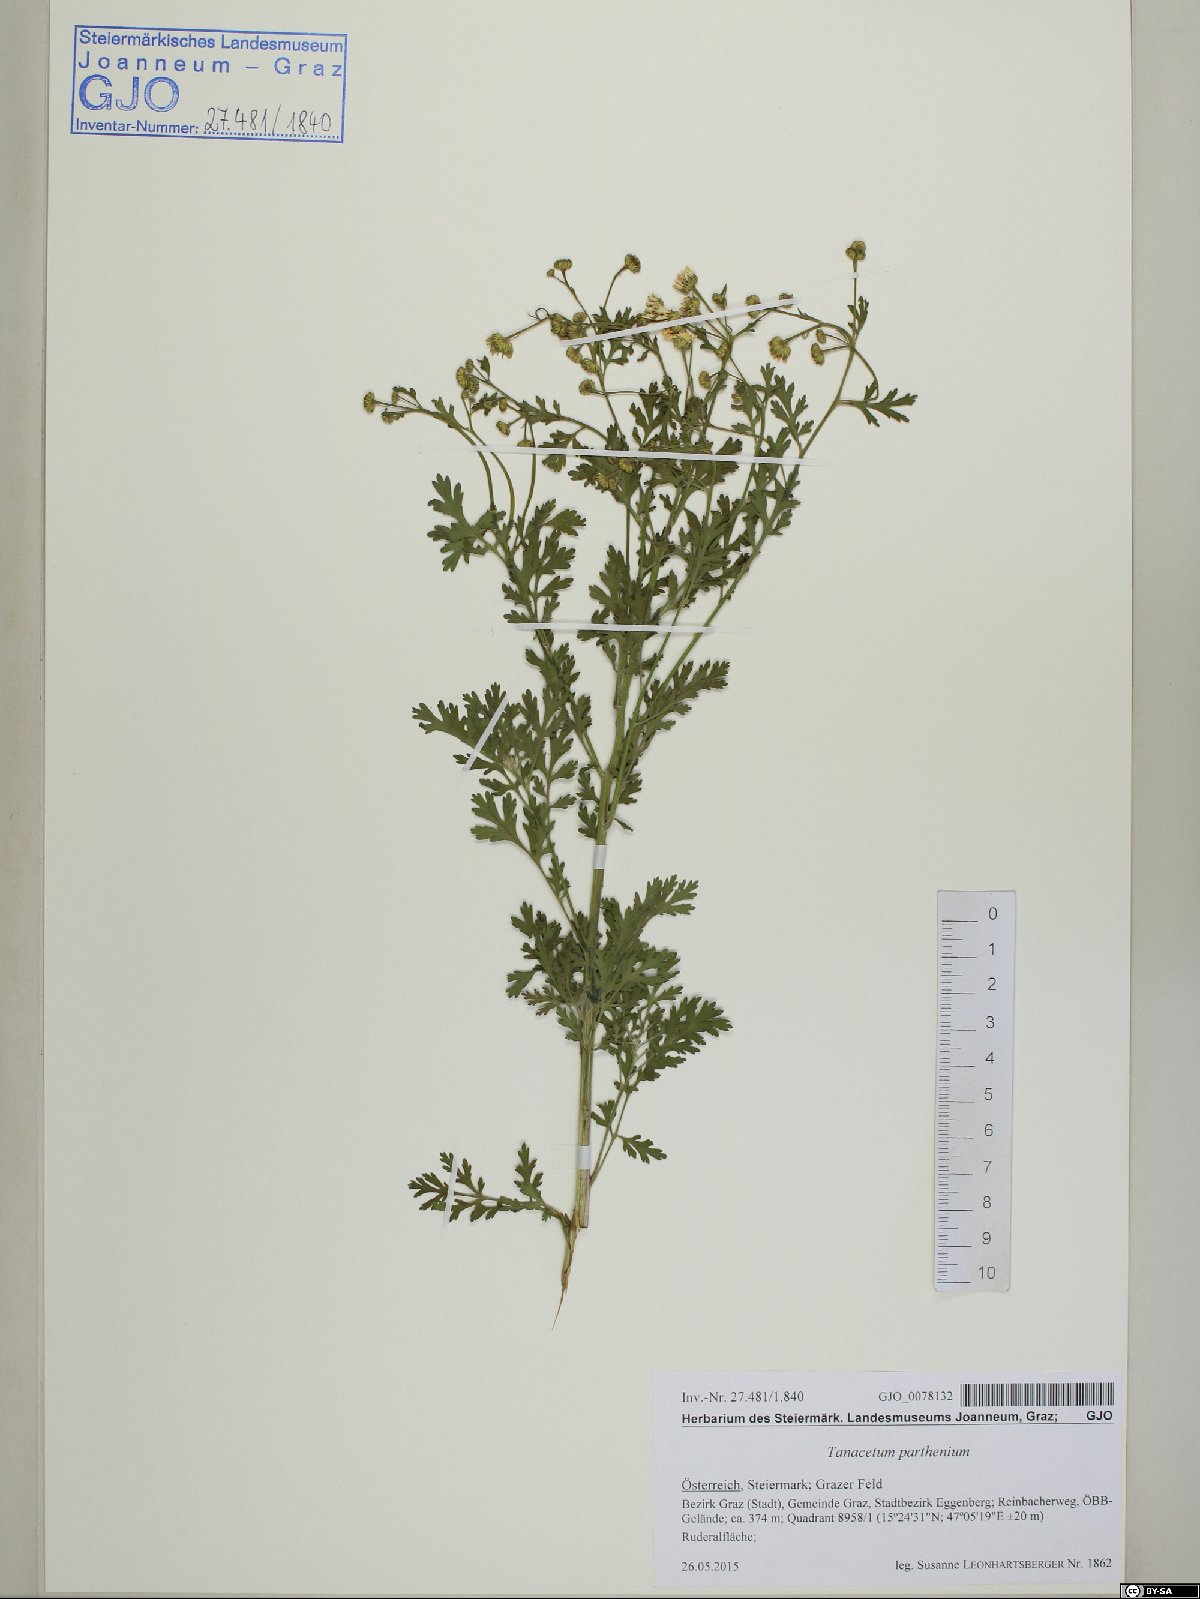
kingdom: Plantae
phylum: Tracheophyta
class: Magnoliopsida
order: Asterales
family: Asteraceae
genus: Tanacetum
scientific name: Tanacetum parthenium
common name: Feverfew
